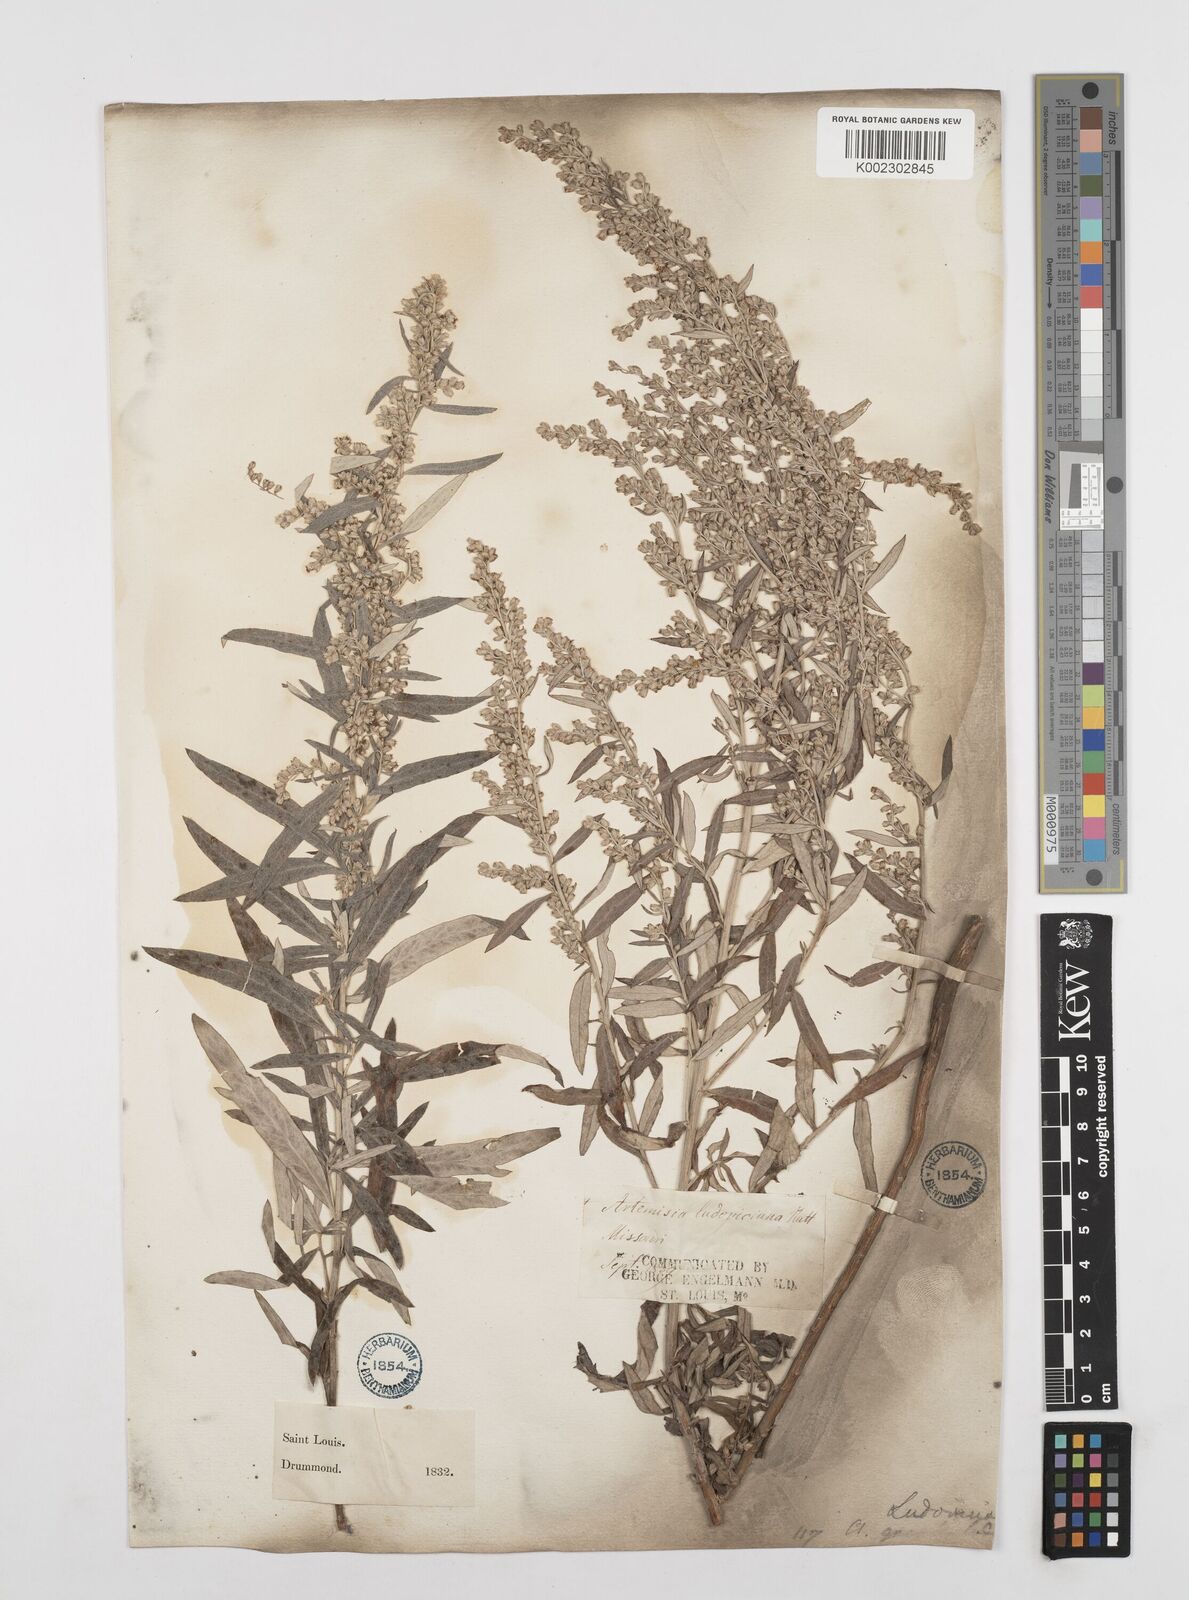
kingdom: Plantae
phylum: Tracheophyta
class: Magnoliopsida
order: Asterales
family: Asteraceae
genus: Artemisia
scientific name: Artemisia ludoviciana
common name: Western mugwort
